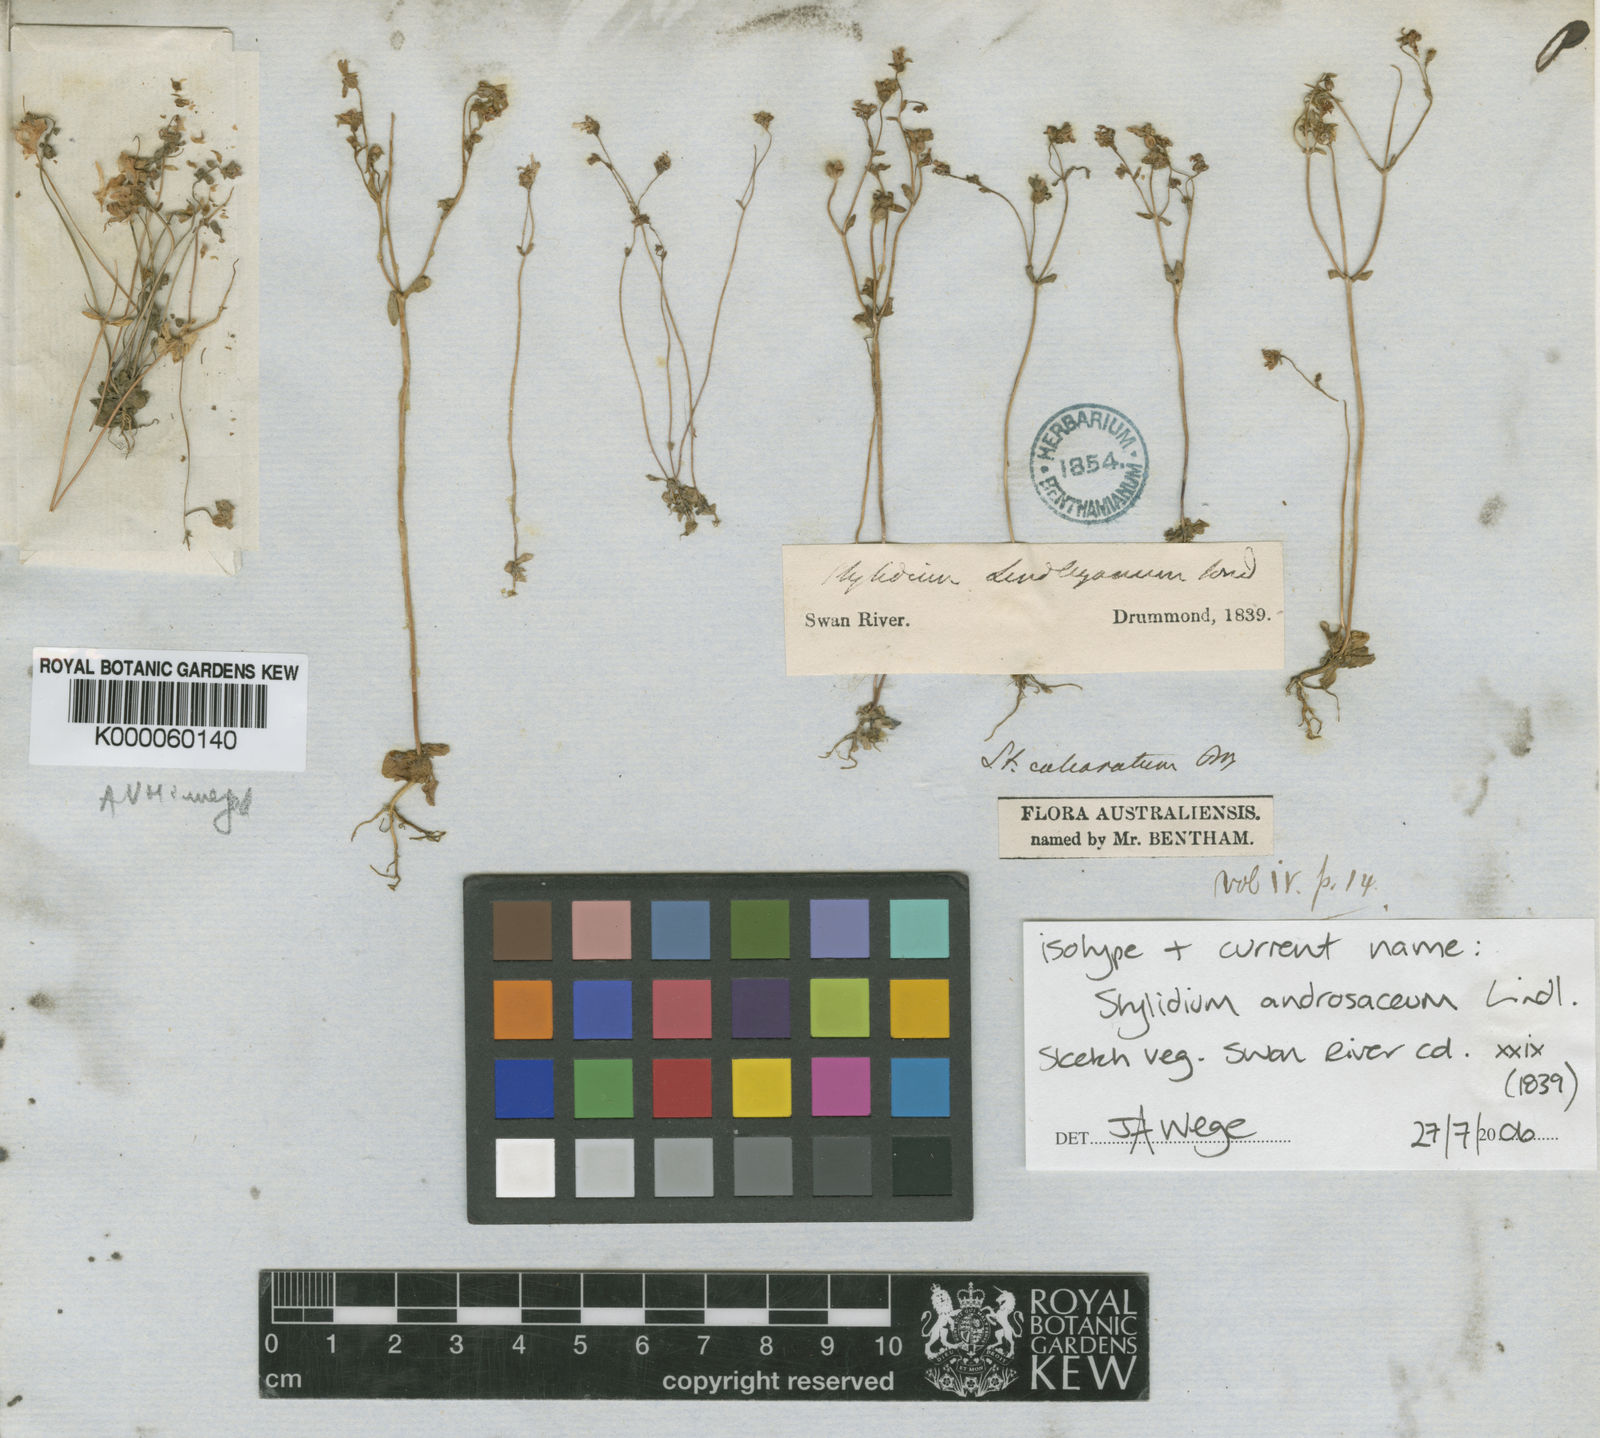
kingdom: Plantae
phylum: Tracheophyta
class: Magnoliopsida
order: Asterales
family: Stylidiaceae
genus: Stylidium
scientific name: Stylidium androsaceum
